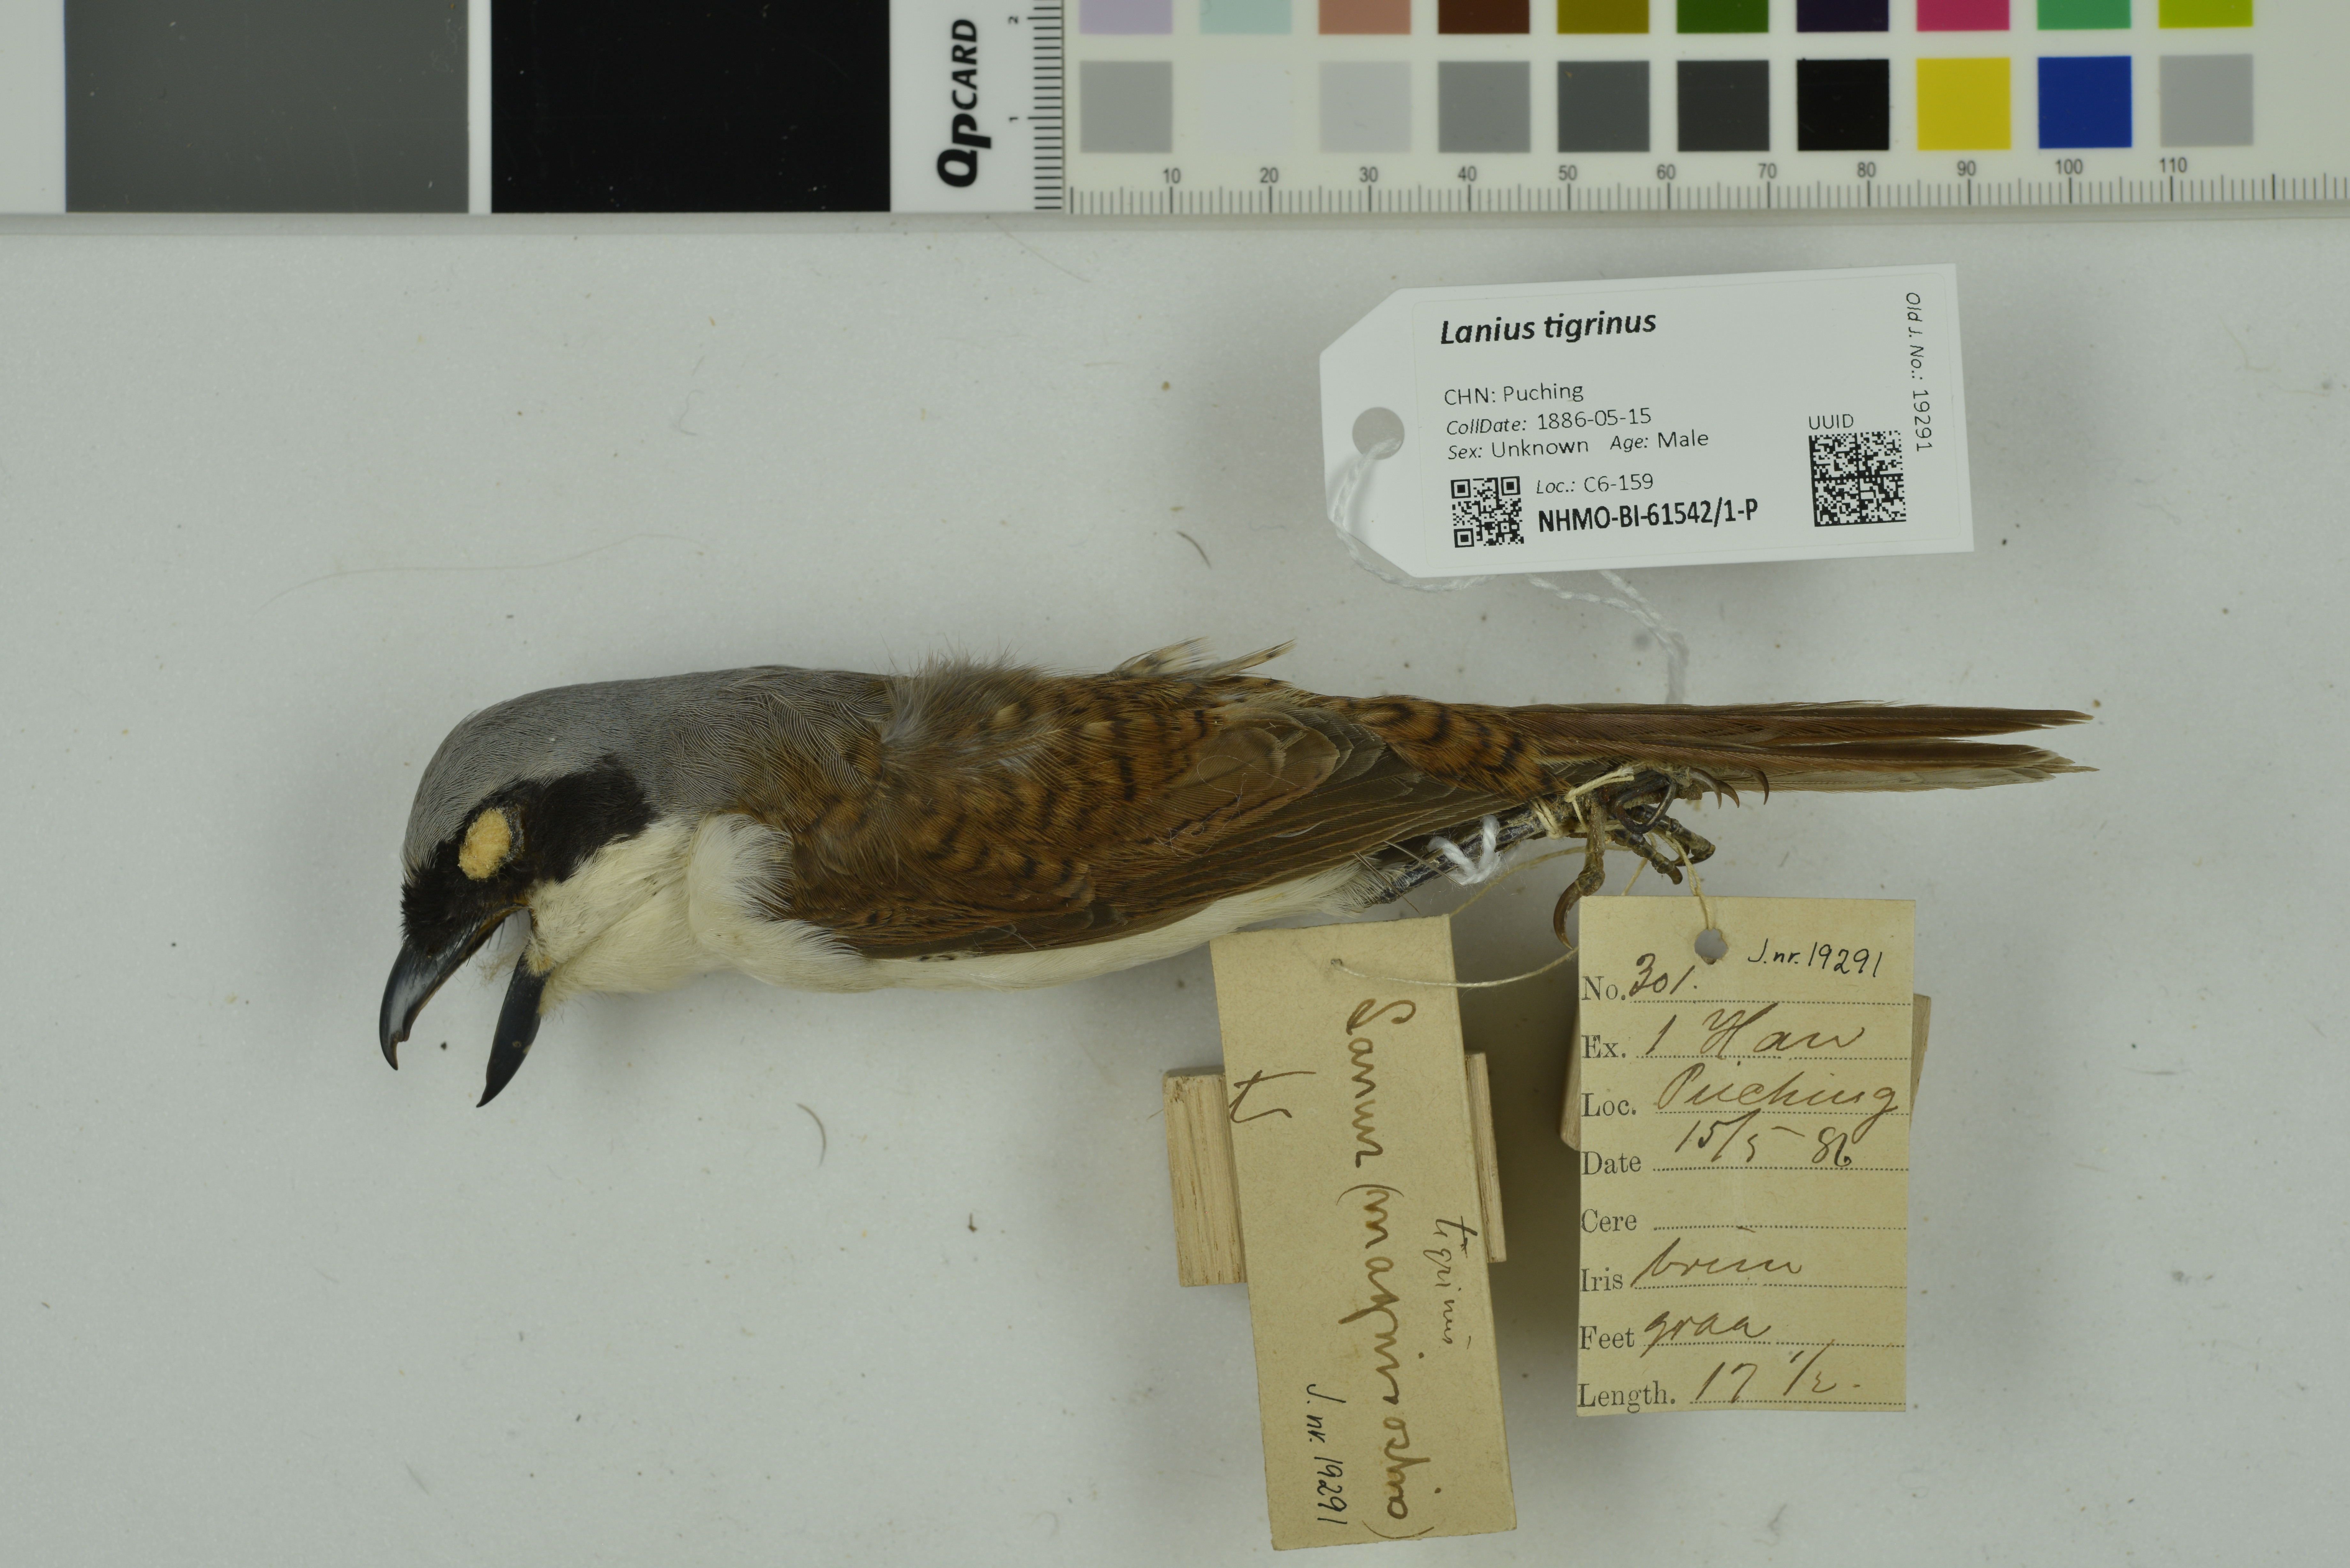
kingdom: Animalia
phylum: Chordata
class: Aves
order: Passeriformes
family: Laniidae
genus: Lanius
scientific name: Lanius tigrinus
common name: Tiger shrike
